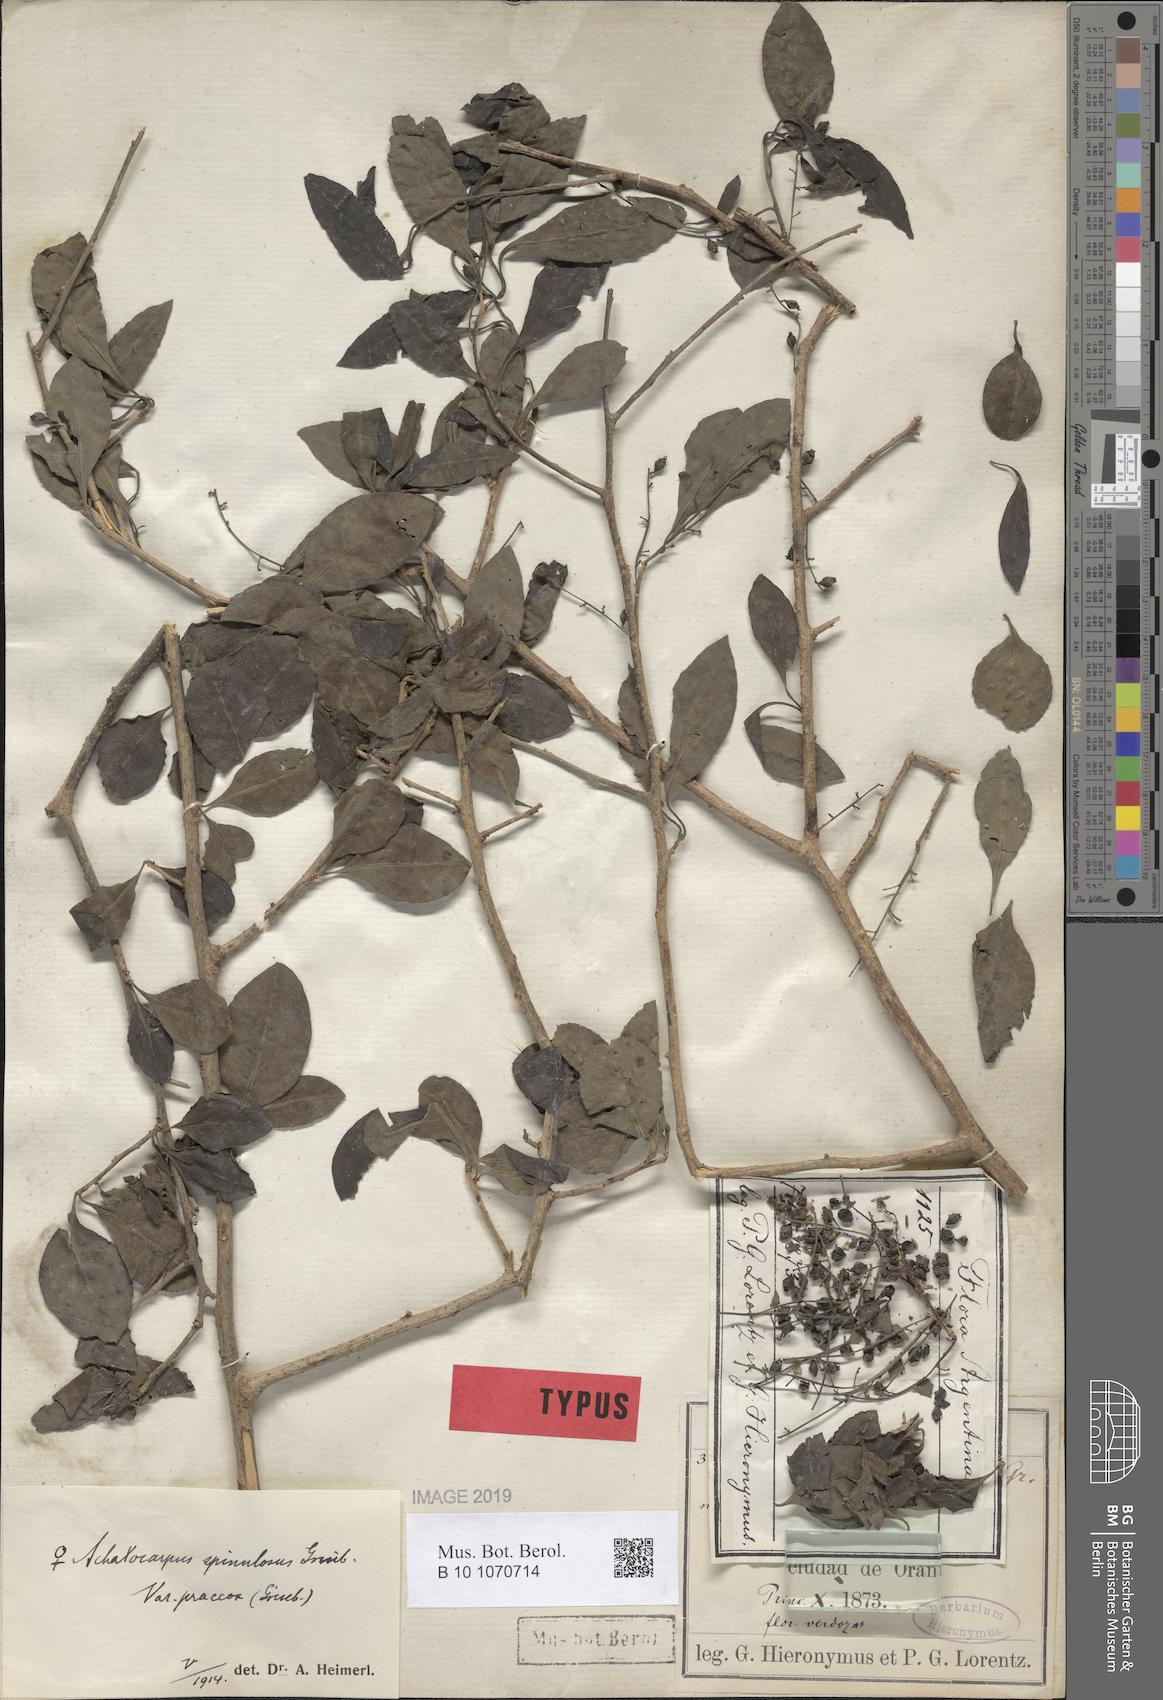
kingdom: Plantae
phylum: Tracheophyta
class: Magnoliopsida
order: Caryophyllales
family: Achatocarpaceae
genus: Achatocarpus
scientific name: Achatocarpus praecox
